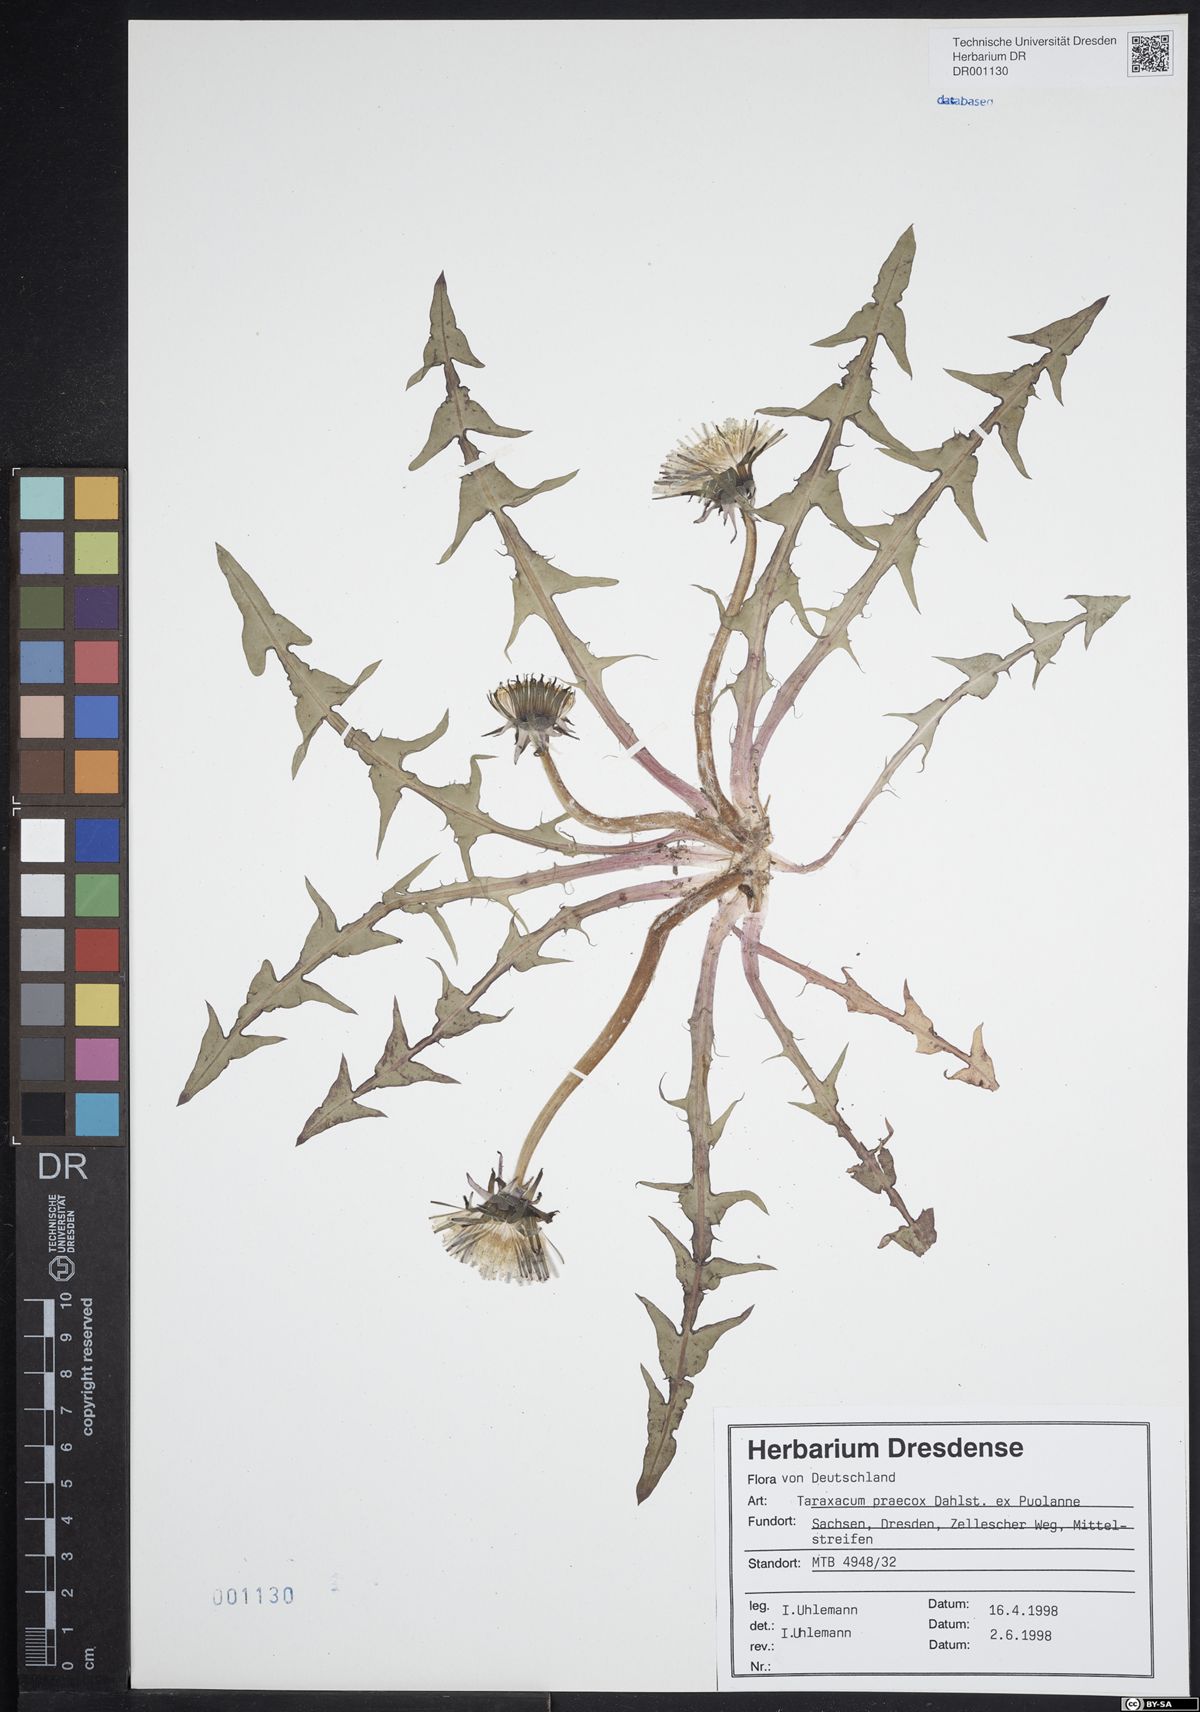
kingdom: Plantae
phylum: Tracheophyta
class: Magnoliopsida
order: Asterales
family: Asteraceae
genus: Taraxacum
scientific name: Taraxacum praecox
